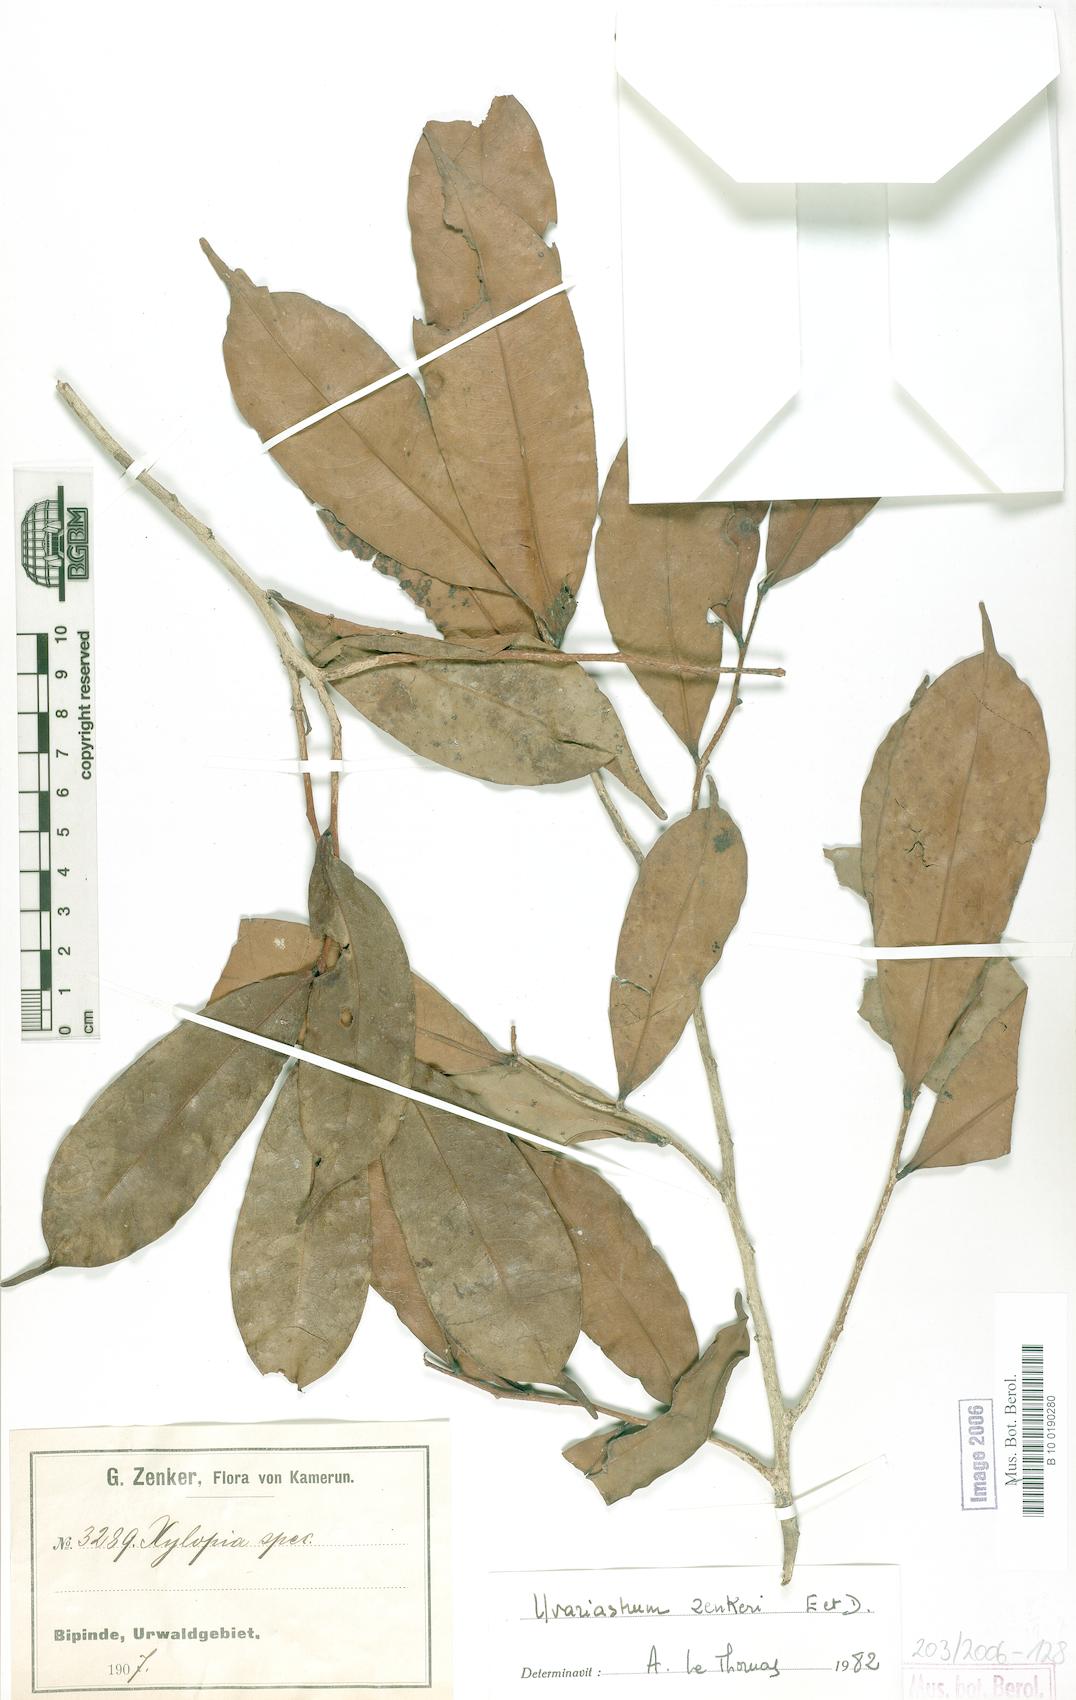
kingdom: Plantae
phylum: Tracheophyta
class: Magnoliopsida
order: Magnoliales
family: Annonaceae
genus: Uvariastrum
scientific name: Uvariastrum zenkeri
